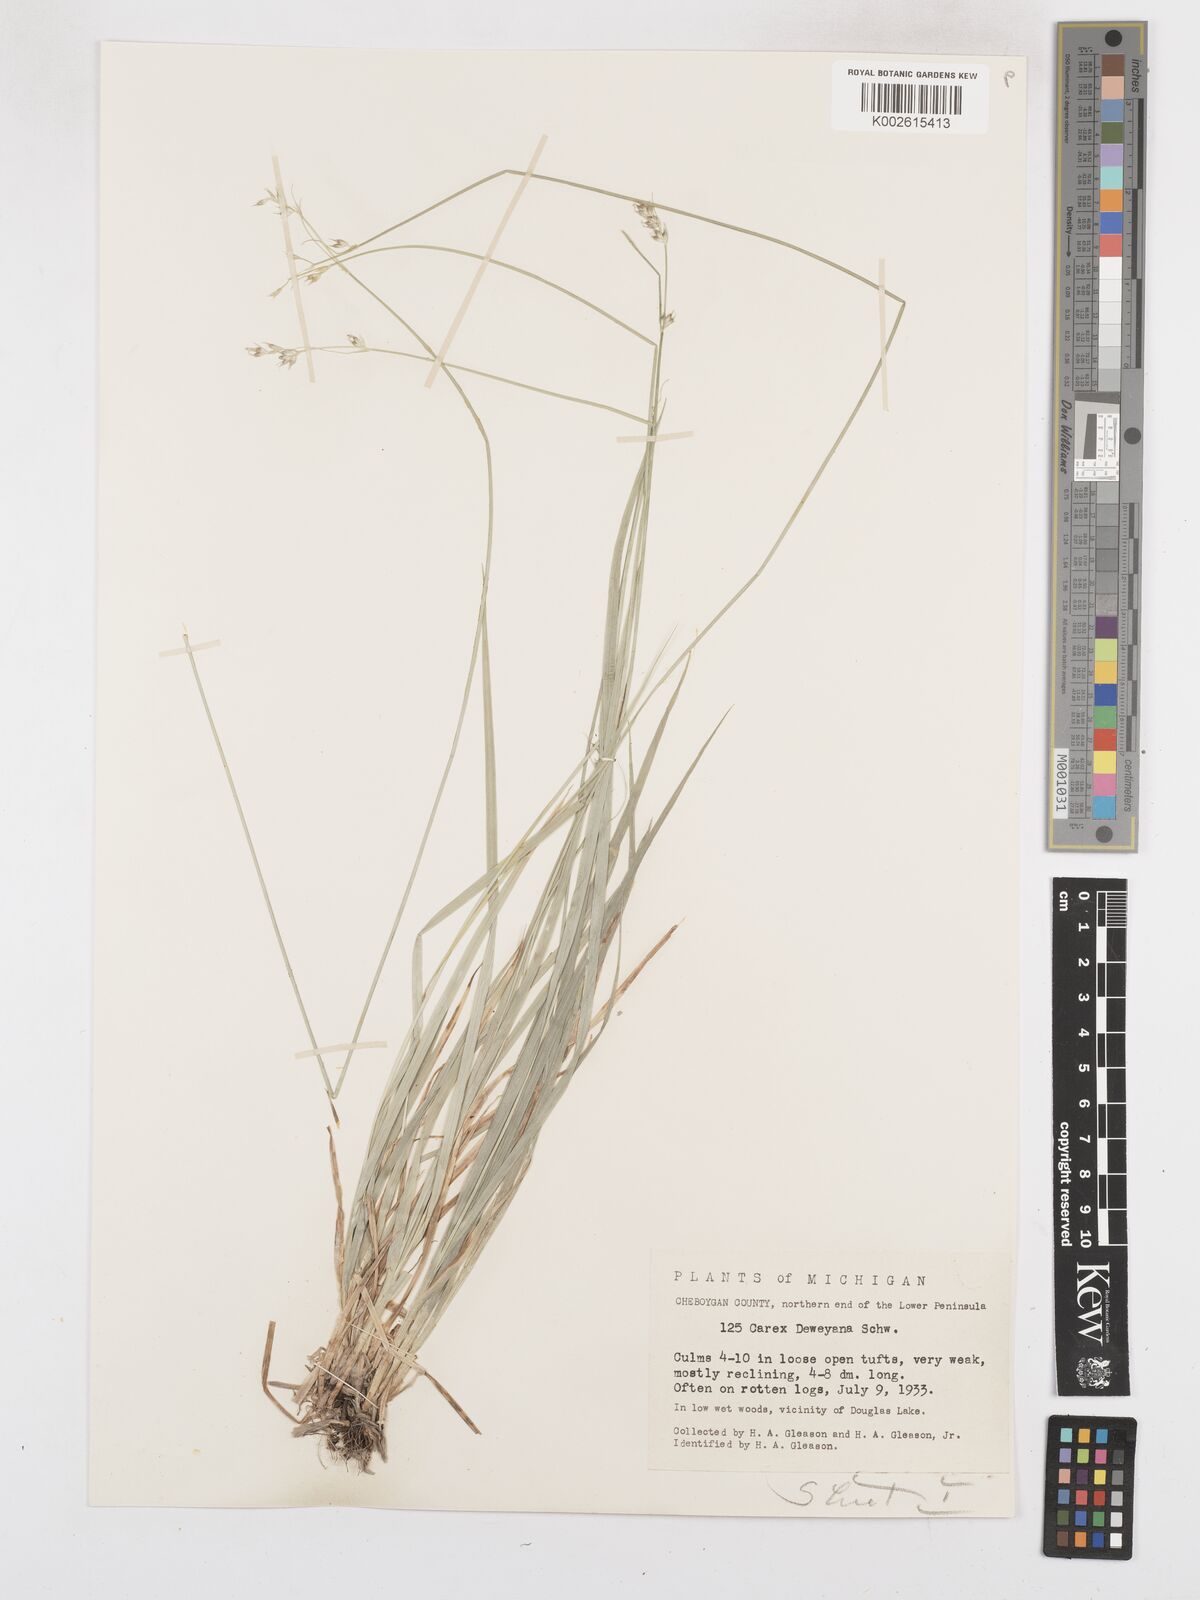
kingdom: Plantae
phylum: Tracheophyta
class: Liliopsida
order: Poales
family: Cyperaceae
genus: Carex
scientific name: Carex bolanderi
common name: Bolander's sedge
